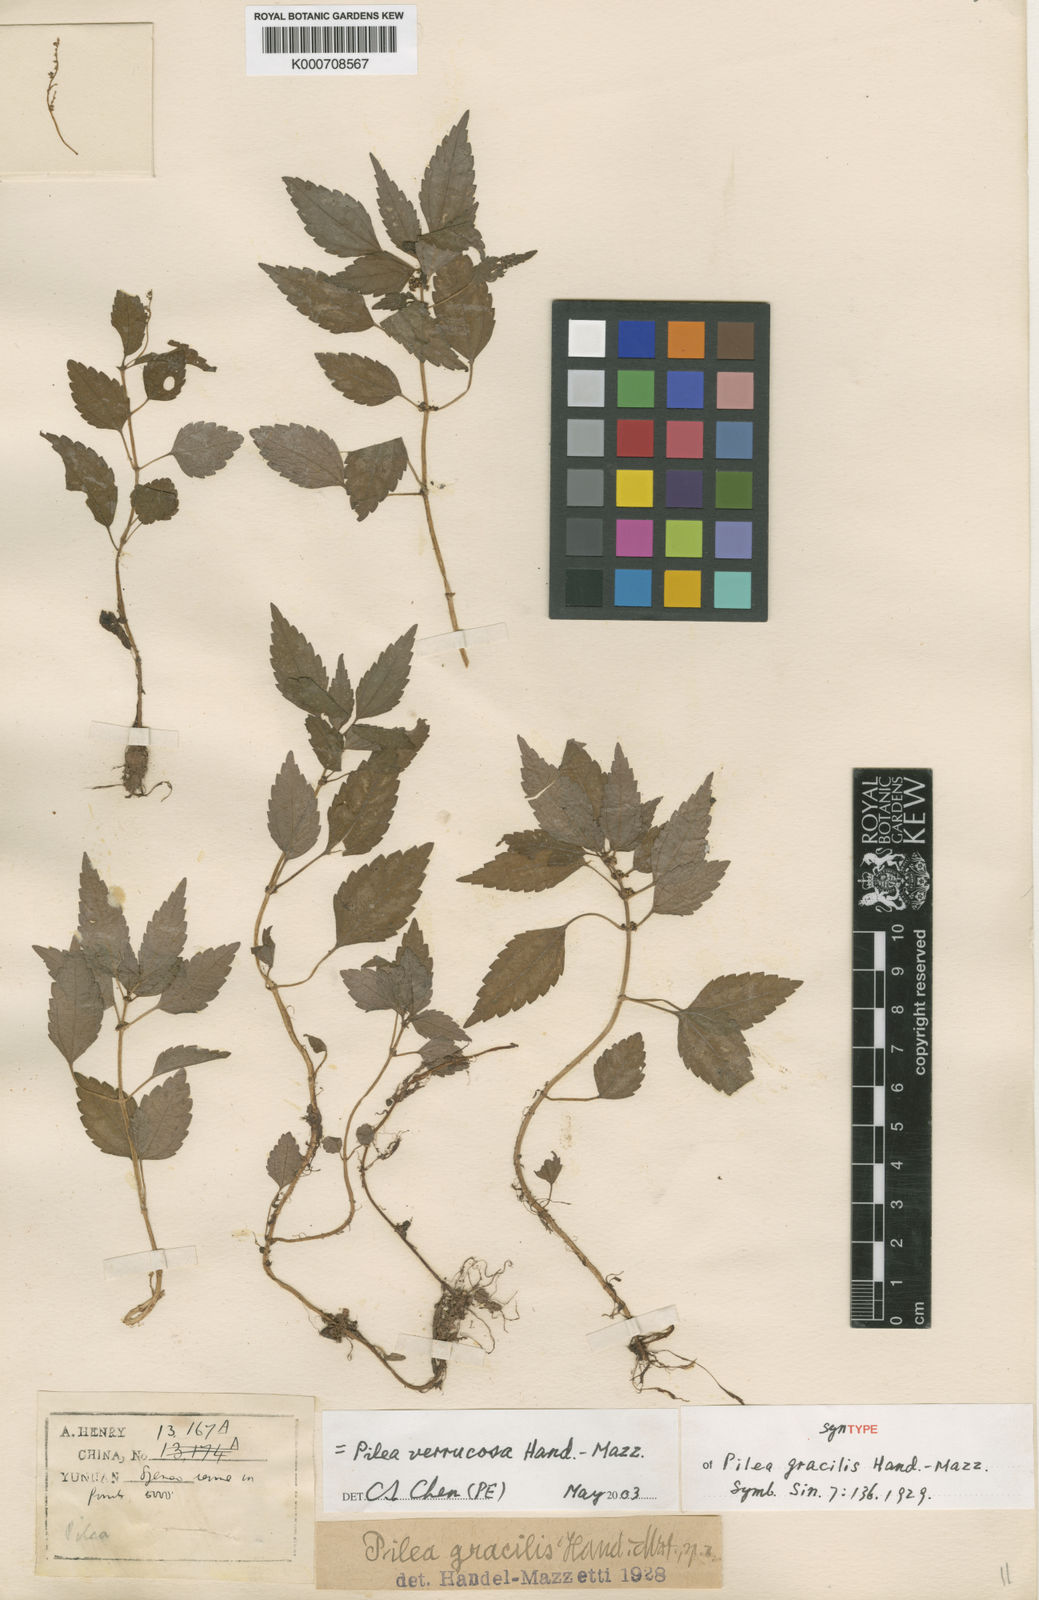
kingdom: Plantae
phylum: Tracheophyta
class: Magnoliopsida
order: Rosales
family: Urticaceae
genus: Pilea
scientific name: Pilea gracilis
